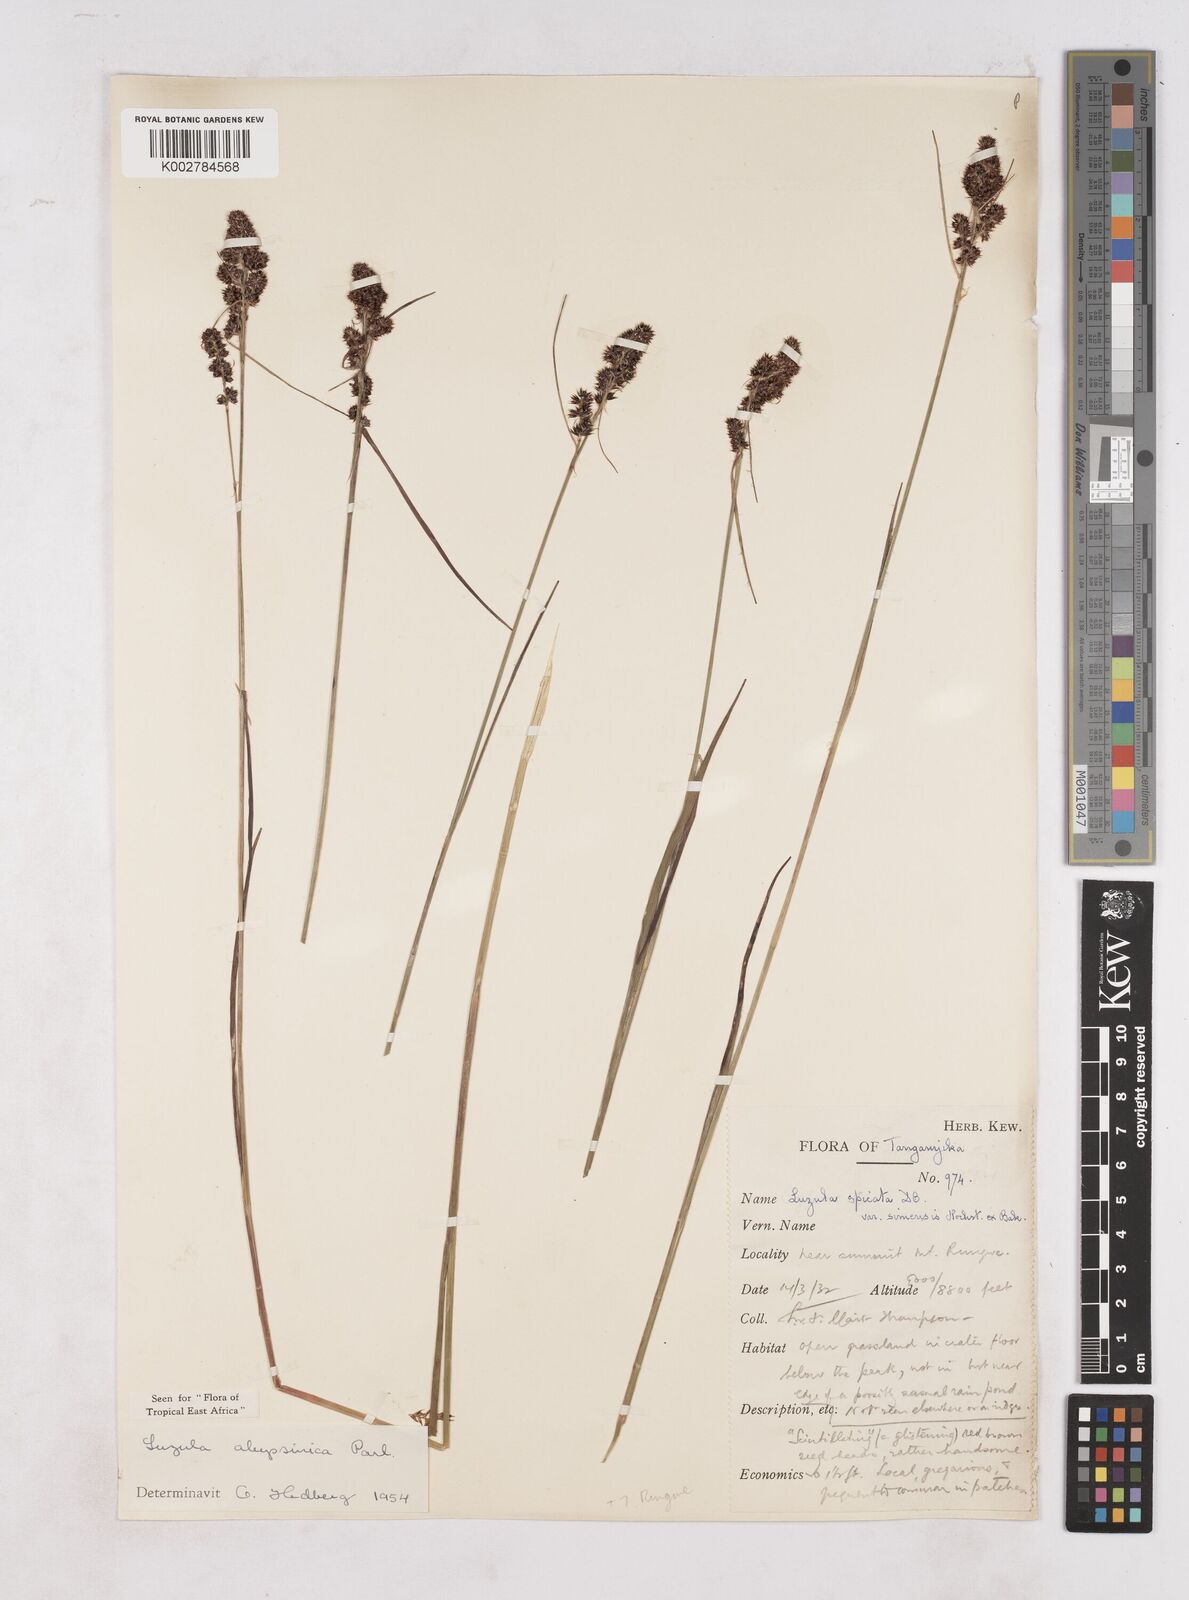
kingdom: Plantae
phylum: Tracheophyta
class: Liliopsida
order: Poales
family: Juncaceae
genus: Luzula
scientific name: Luzula abyssinica
